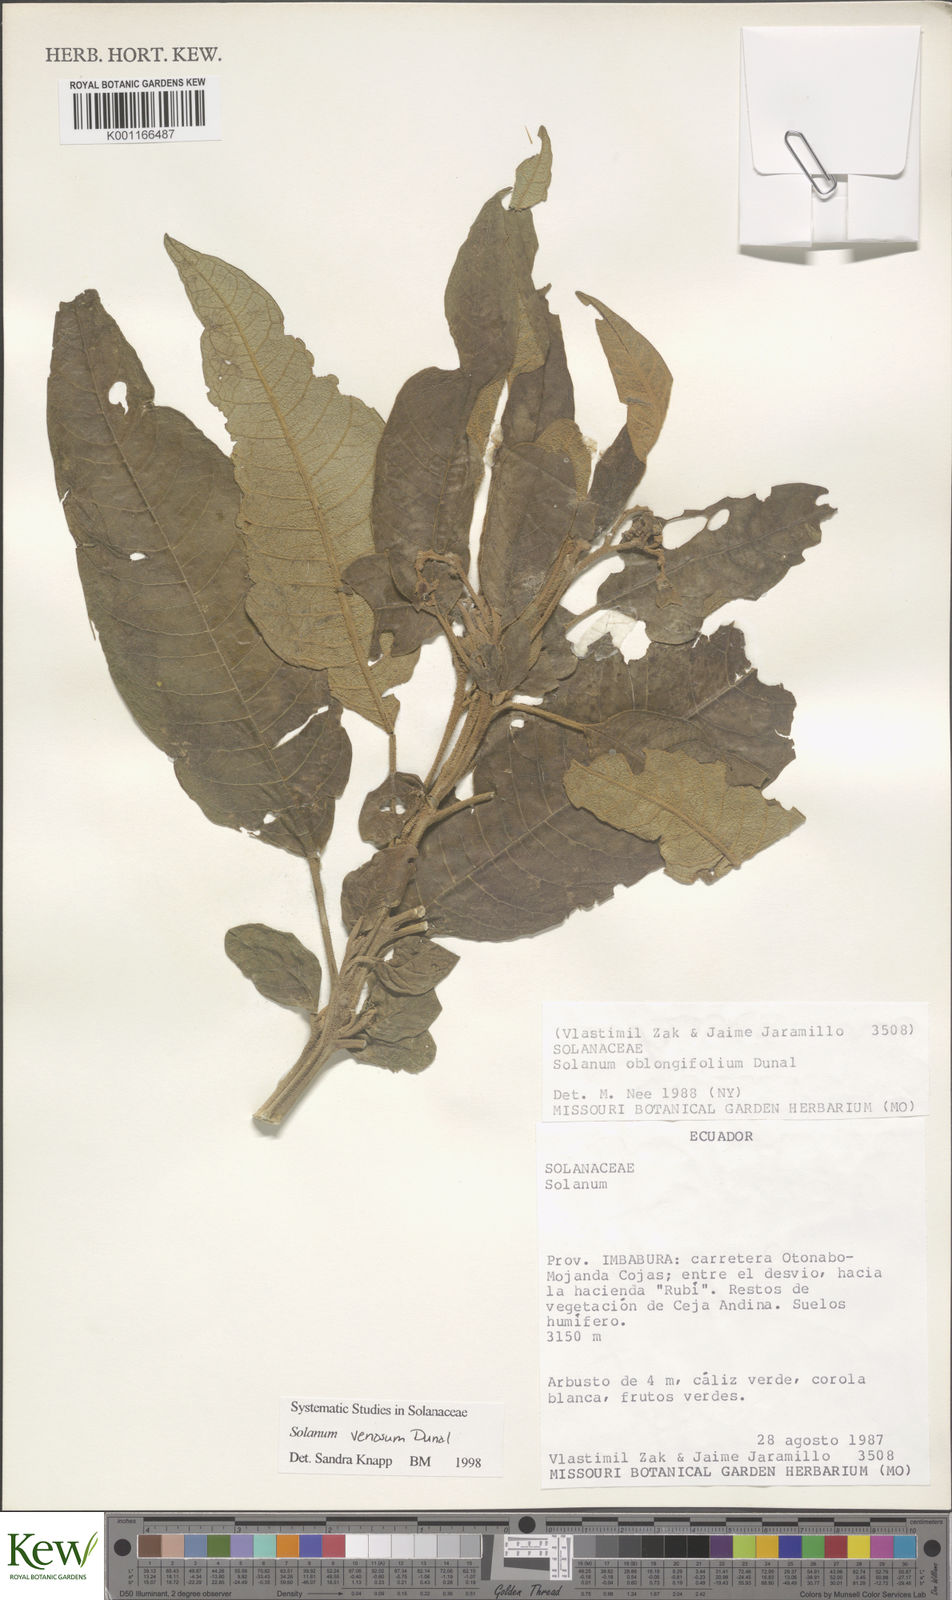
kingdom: Plantae
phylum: Tracheophyta
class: Magnoliopsida
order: Solanales
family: Solanaceae
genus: Solanum
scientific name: Solanum venosum
